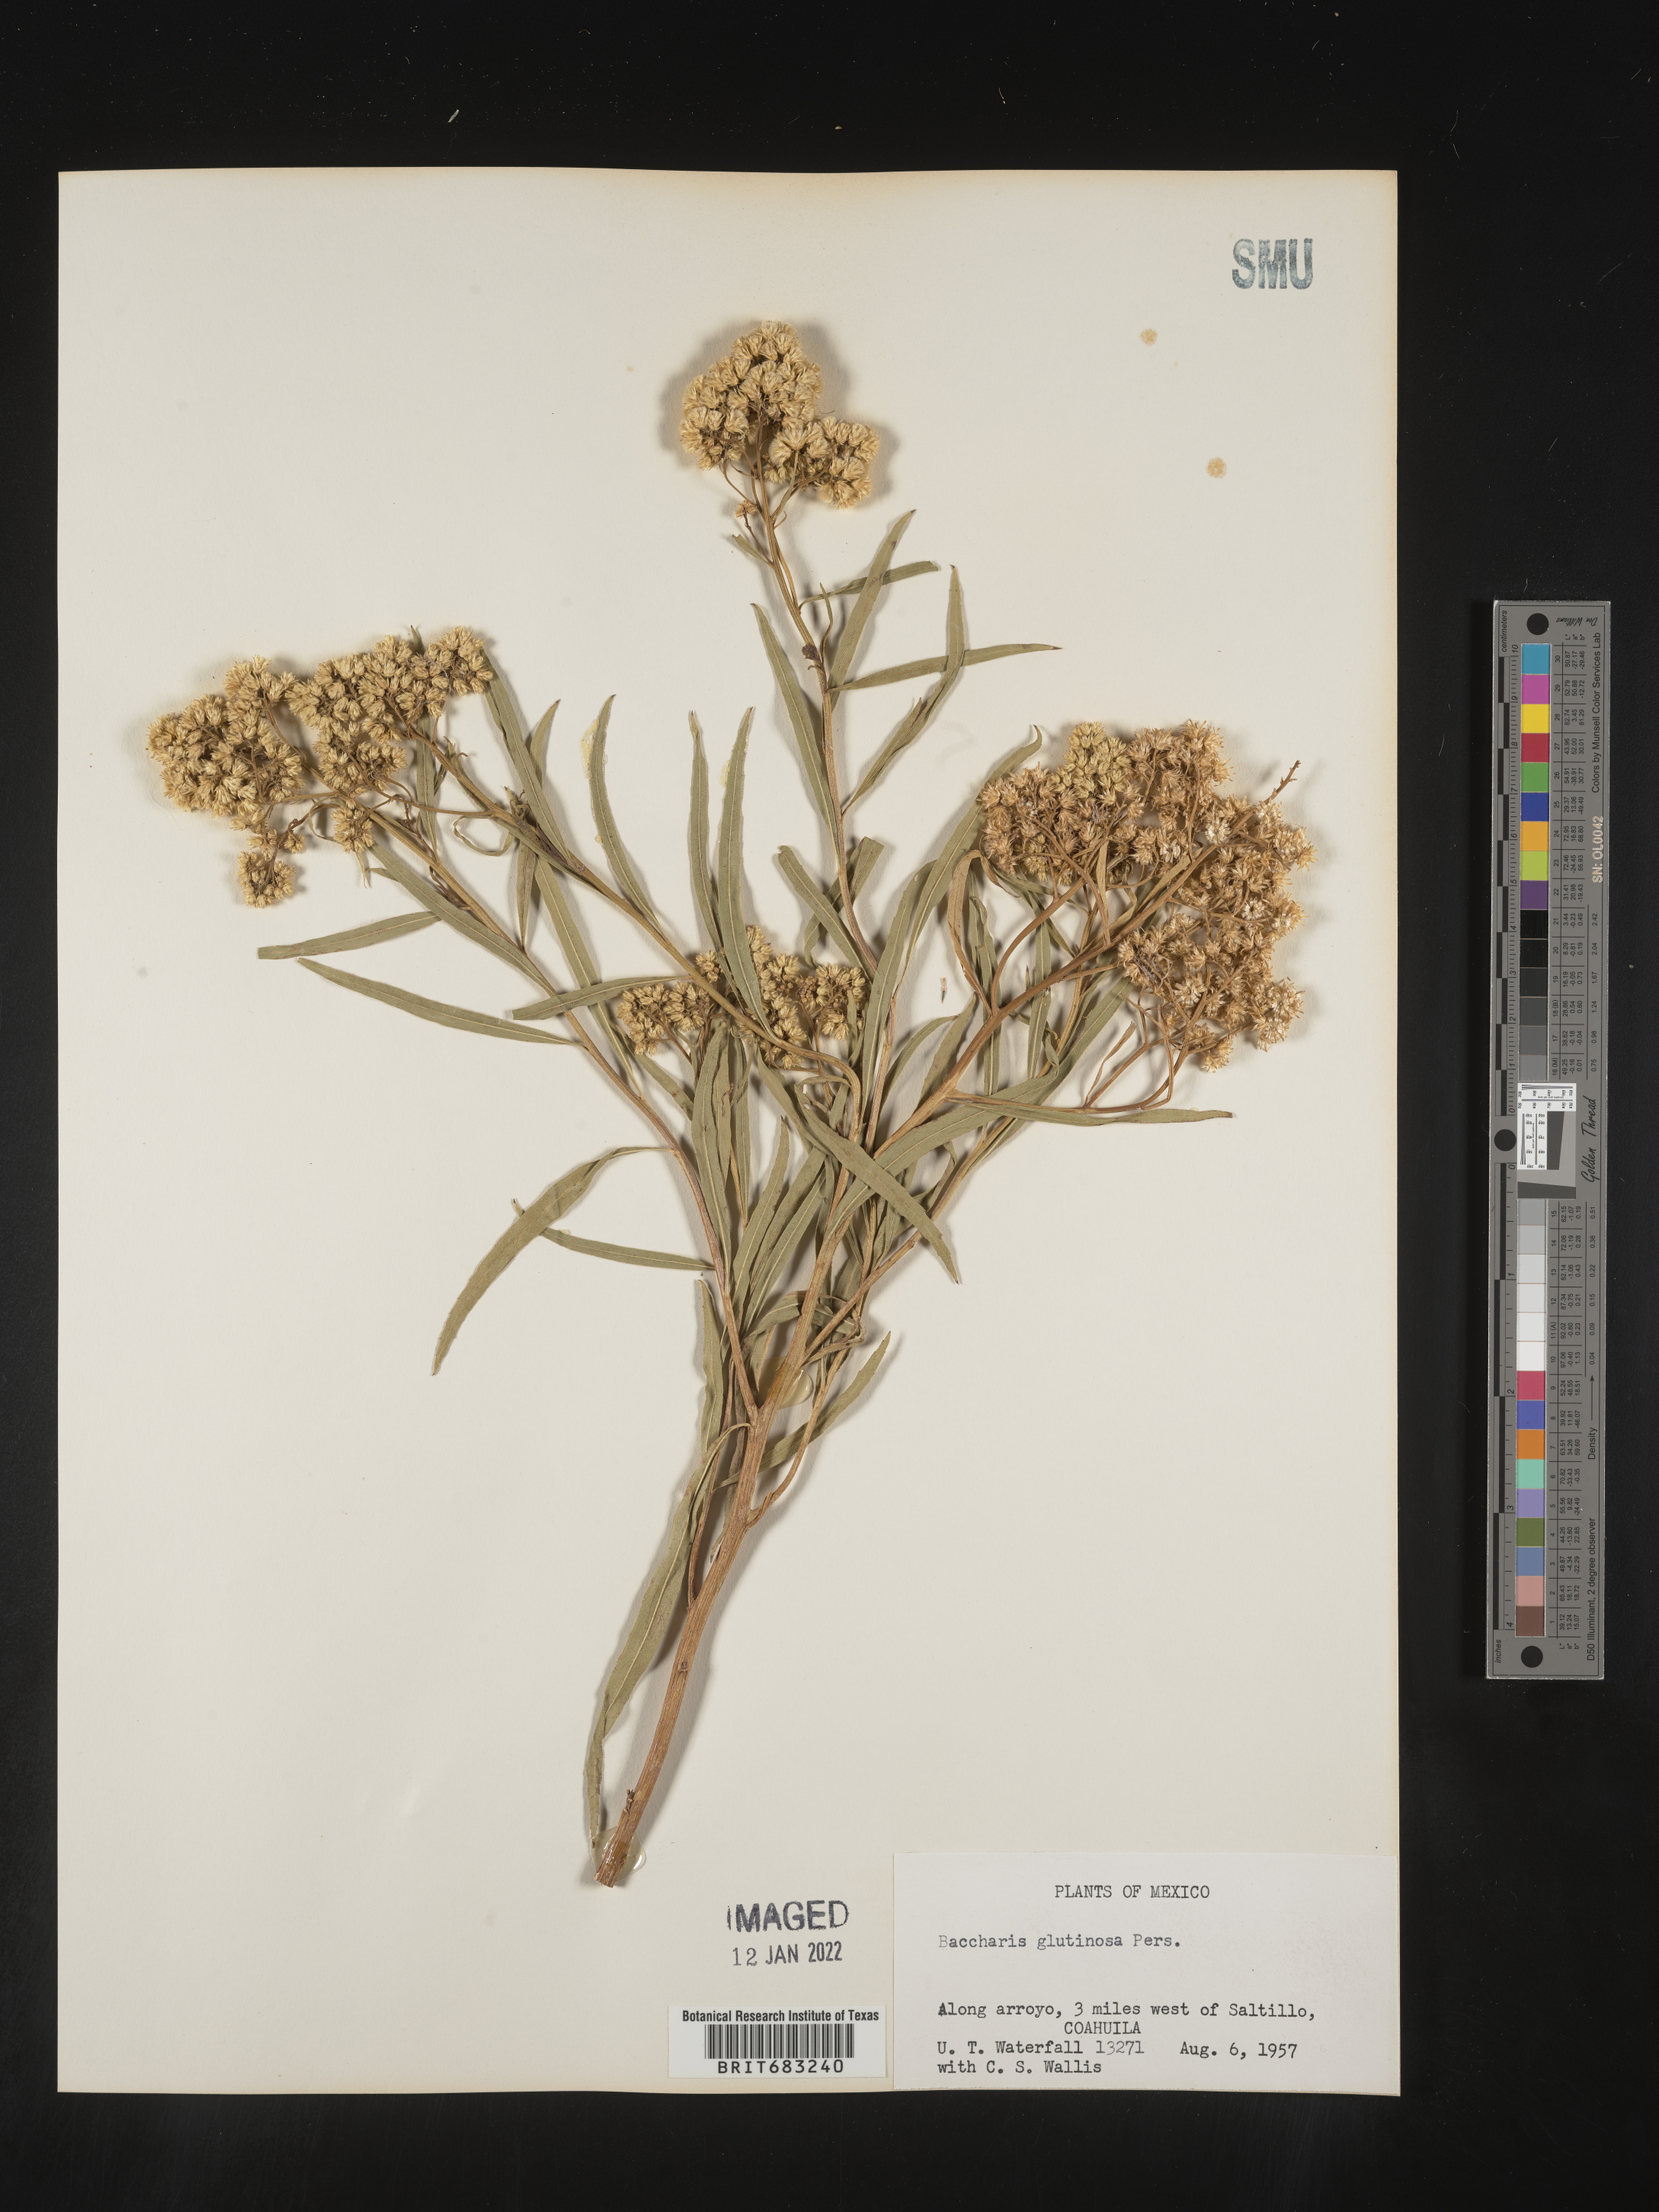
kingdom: Plantae
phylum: Tracheophyta
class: Magnoliopsida
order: Asterales
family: Asteraceae
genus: Baccharis
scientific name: Baccharis salicifolia
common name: Sticky baccharis
